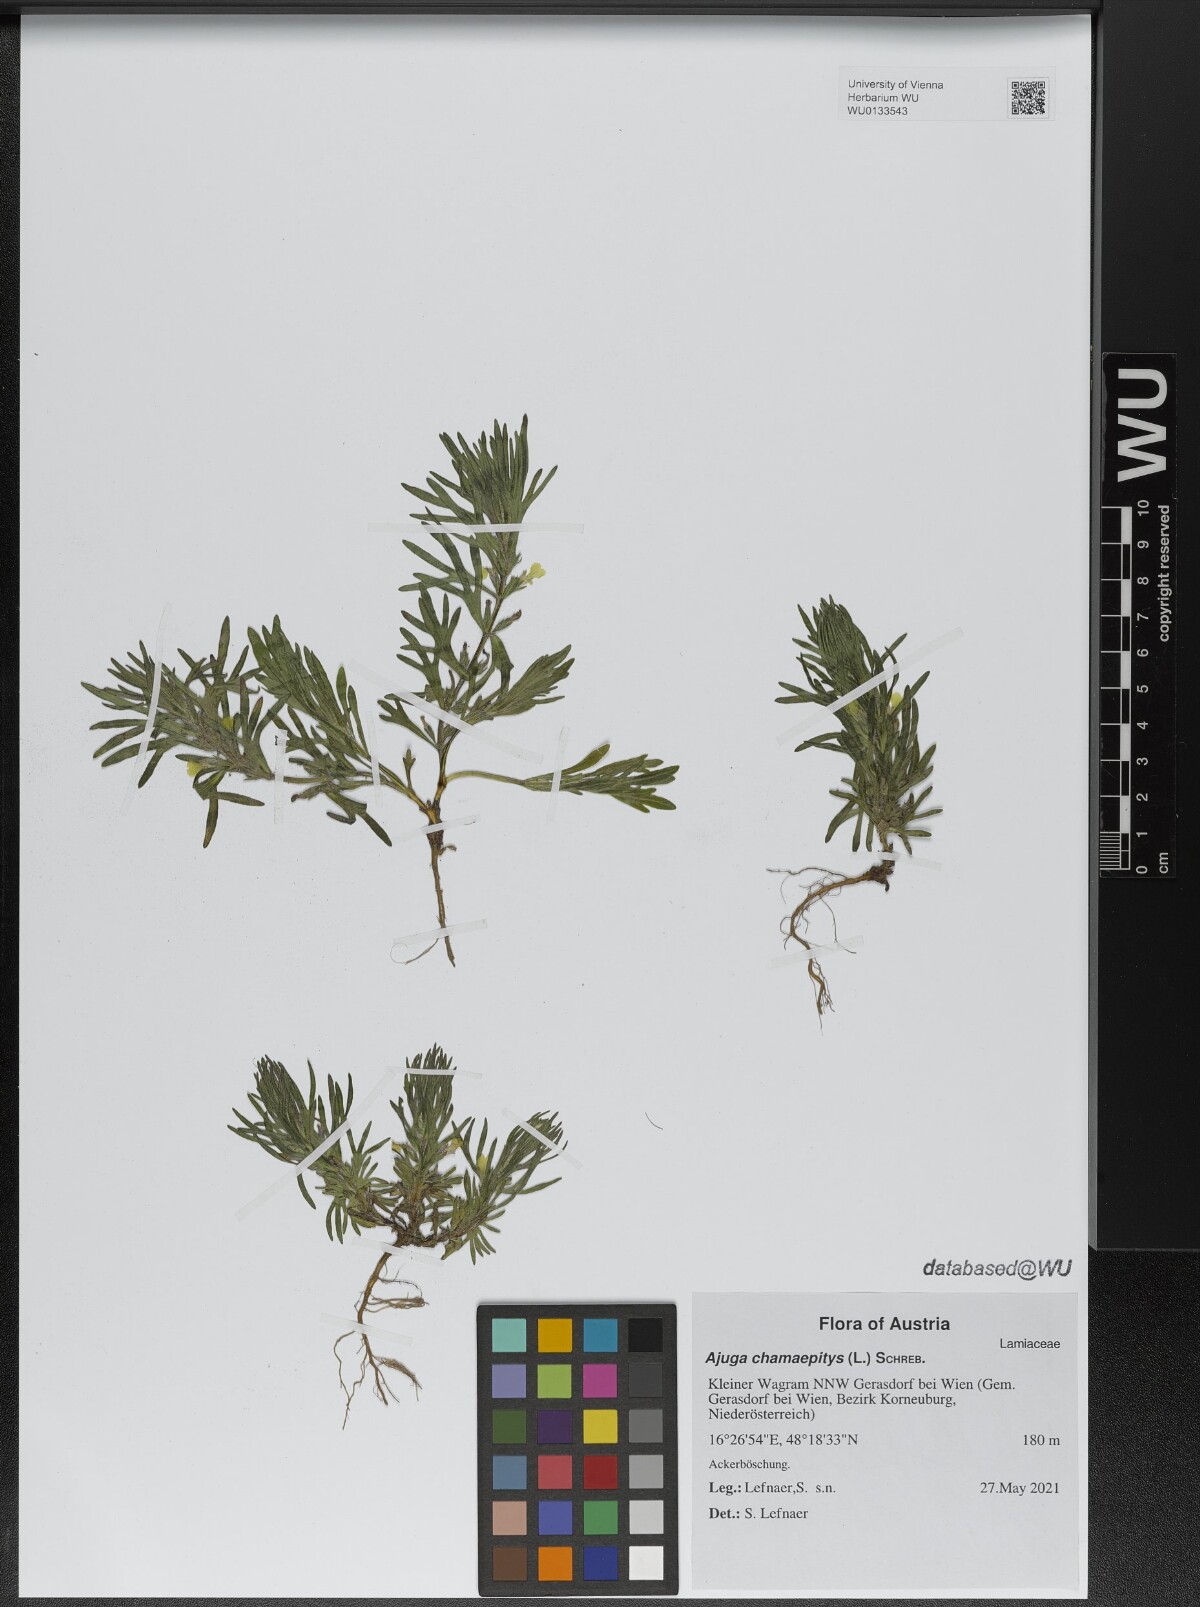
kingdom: Plantae
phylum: Tracheophyta
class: Magnoliopsida
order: Lamiales
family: Lamiaceae
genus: Ajuga
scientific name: Ajuga chamaepitys
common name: Ground-pine
